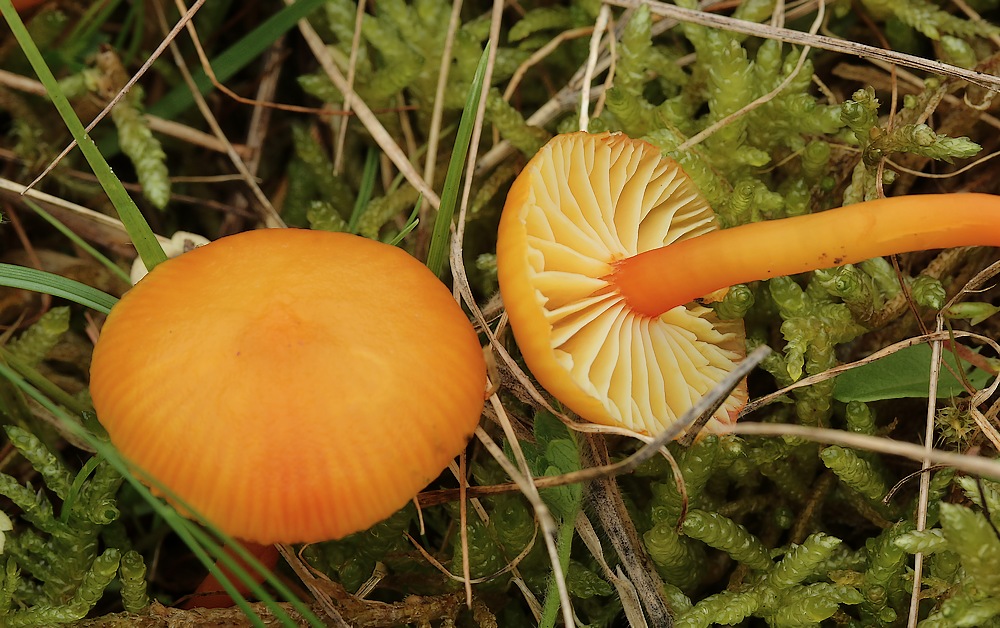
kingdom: Fungi
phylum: Basidiomycota
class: Agaricomycetes
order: Agaricales
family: Hygrophoraceae
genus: Hygrocybe
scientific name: Hygrocybe insipida
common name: liden vokshat
